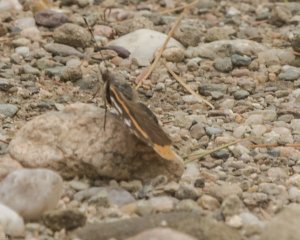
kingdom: Animalia
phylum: Arthropoda
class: Insecta
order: Lepidoptera
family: Nymphalidae
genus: Vanessa
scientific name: Vanessa atalanta
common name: Red Admiral
